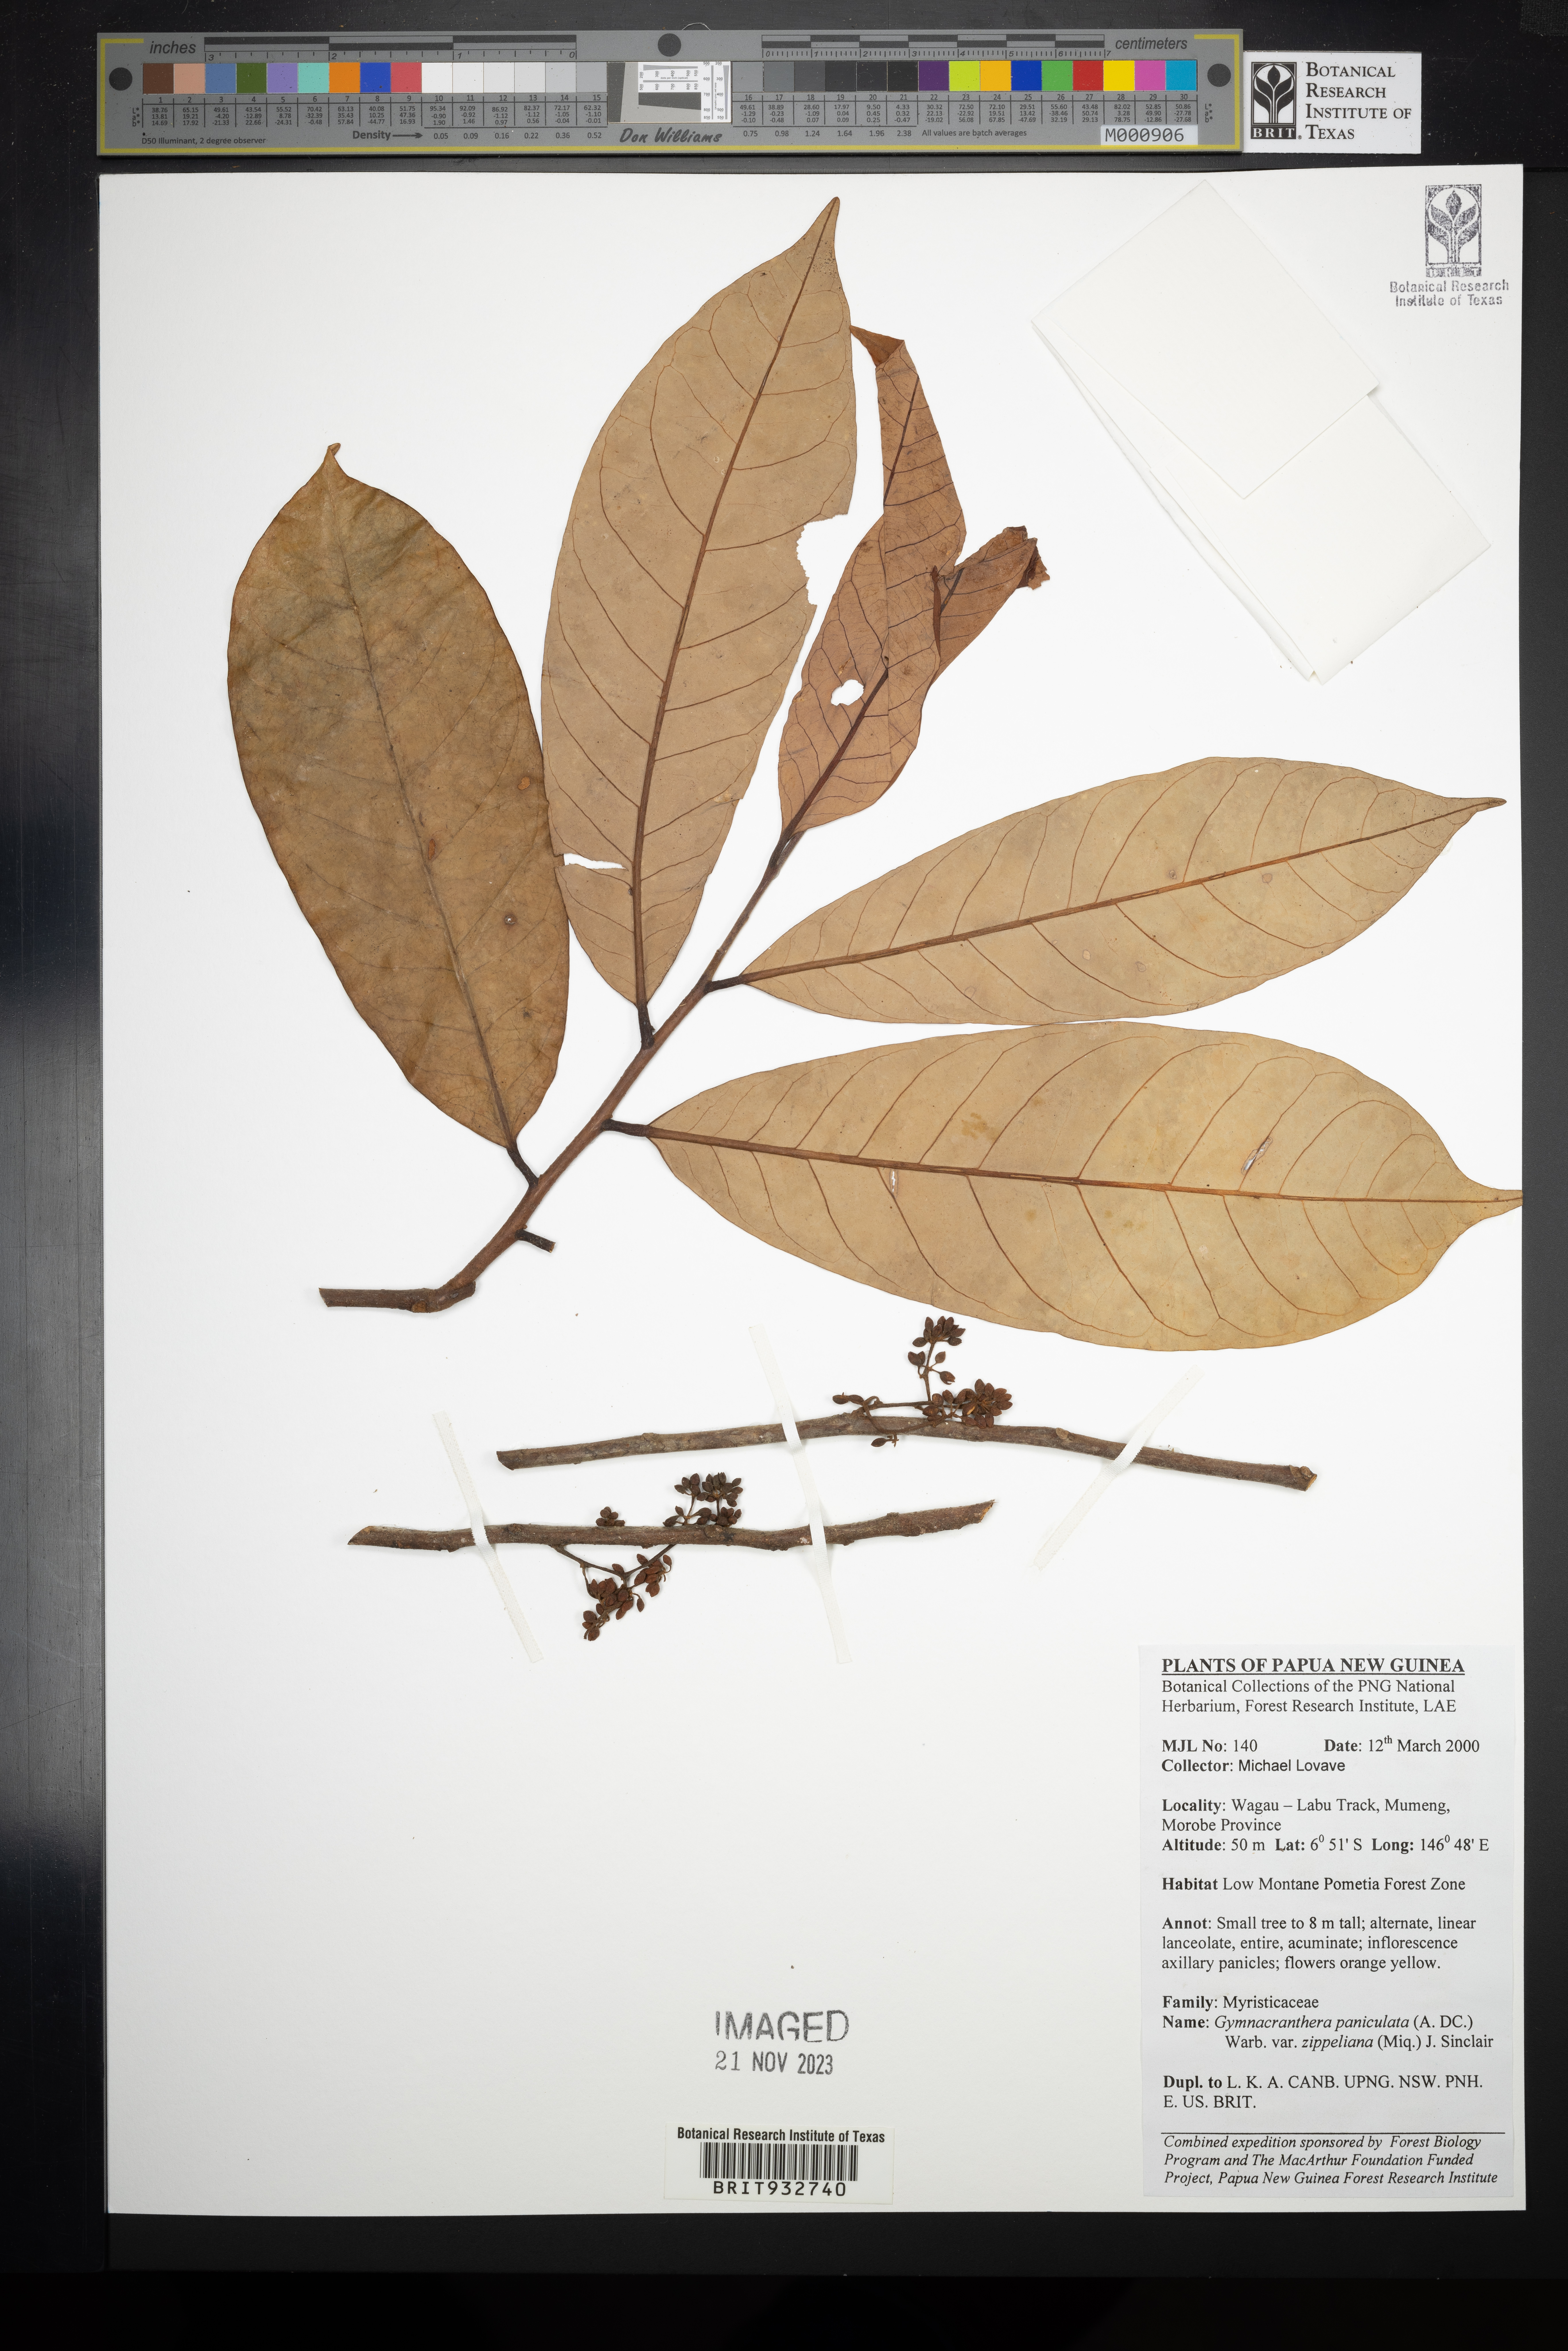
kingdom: Plantae
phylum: Tracheophyta
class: Magnoliopsida
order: Magnoliales
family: Myristicaceae
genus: Gymnacranthera
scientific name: Gymnacranthera
